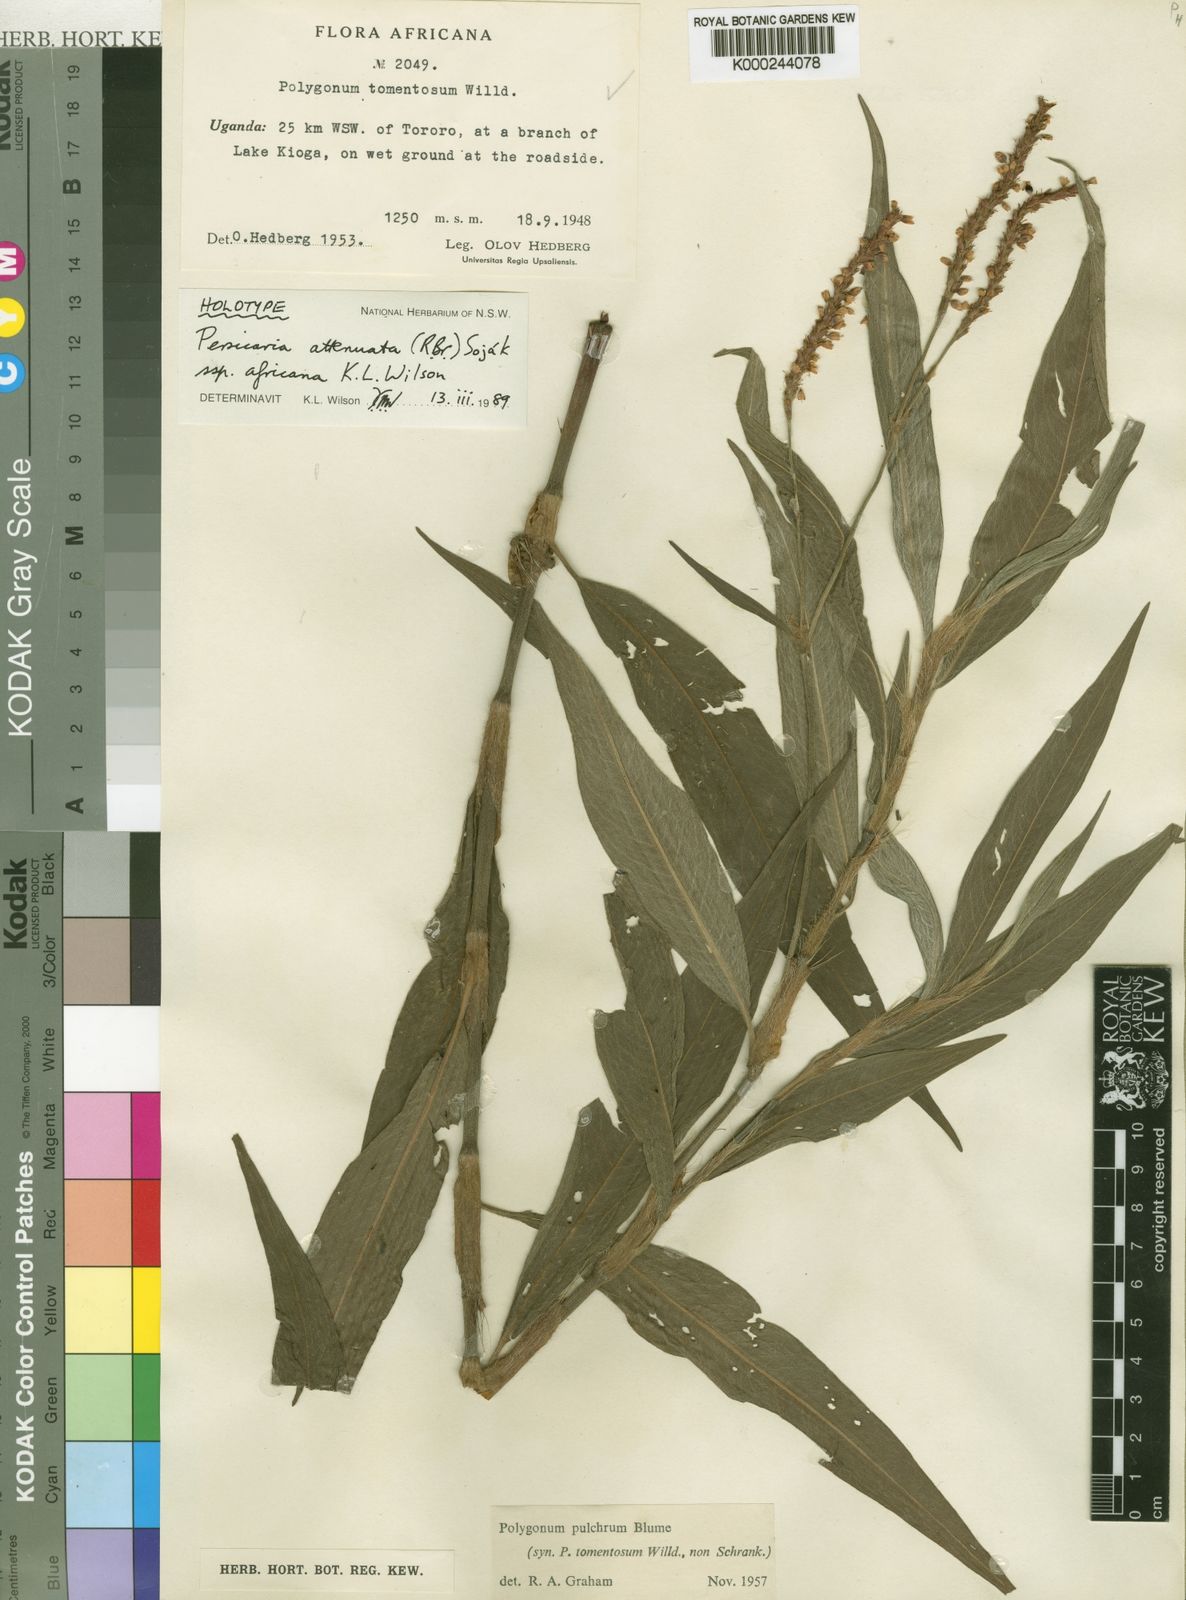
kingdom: Plantae
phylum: Tracheophyta
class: Magnoliopsida
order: Caryophyllales
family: Polygonaceae
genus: Persicaria
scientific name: Persicaria
